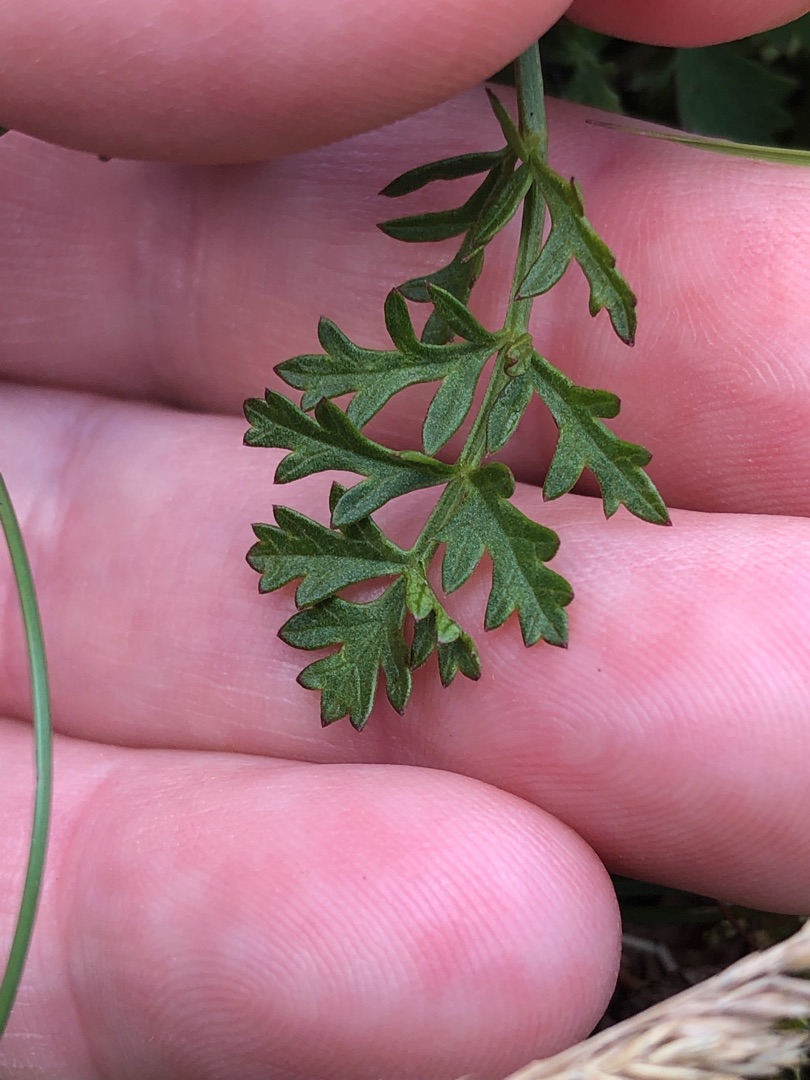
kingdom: Plantae
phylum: Tracheophyta
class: Magnoliopsida
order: Apiales
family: Apiaceae
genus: Pimpinella
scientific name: Pimpinella saxifraga
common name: Almindelig pimpinelle
